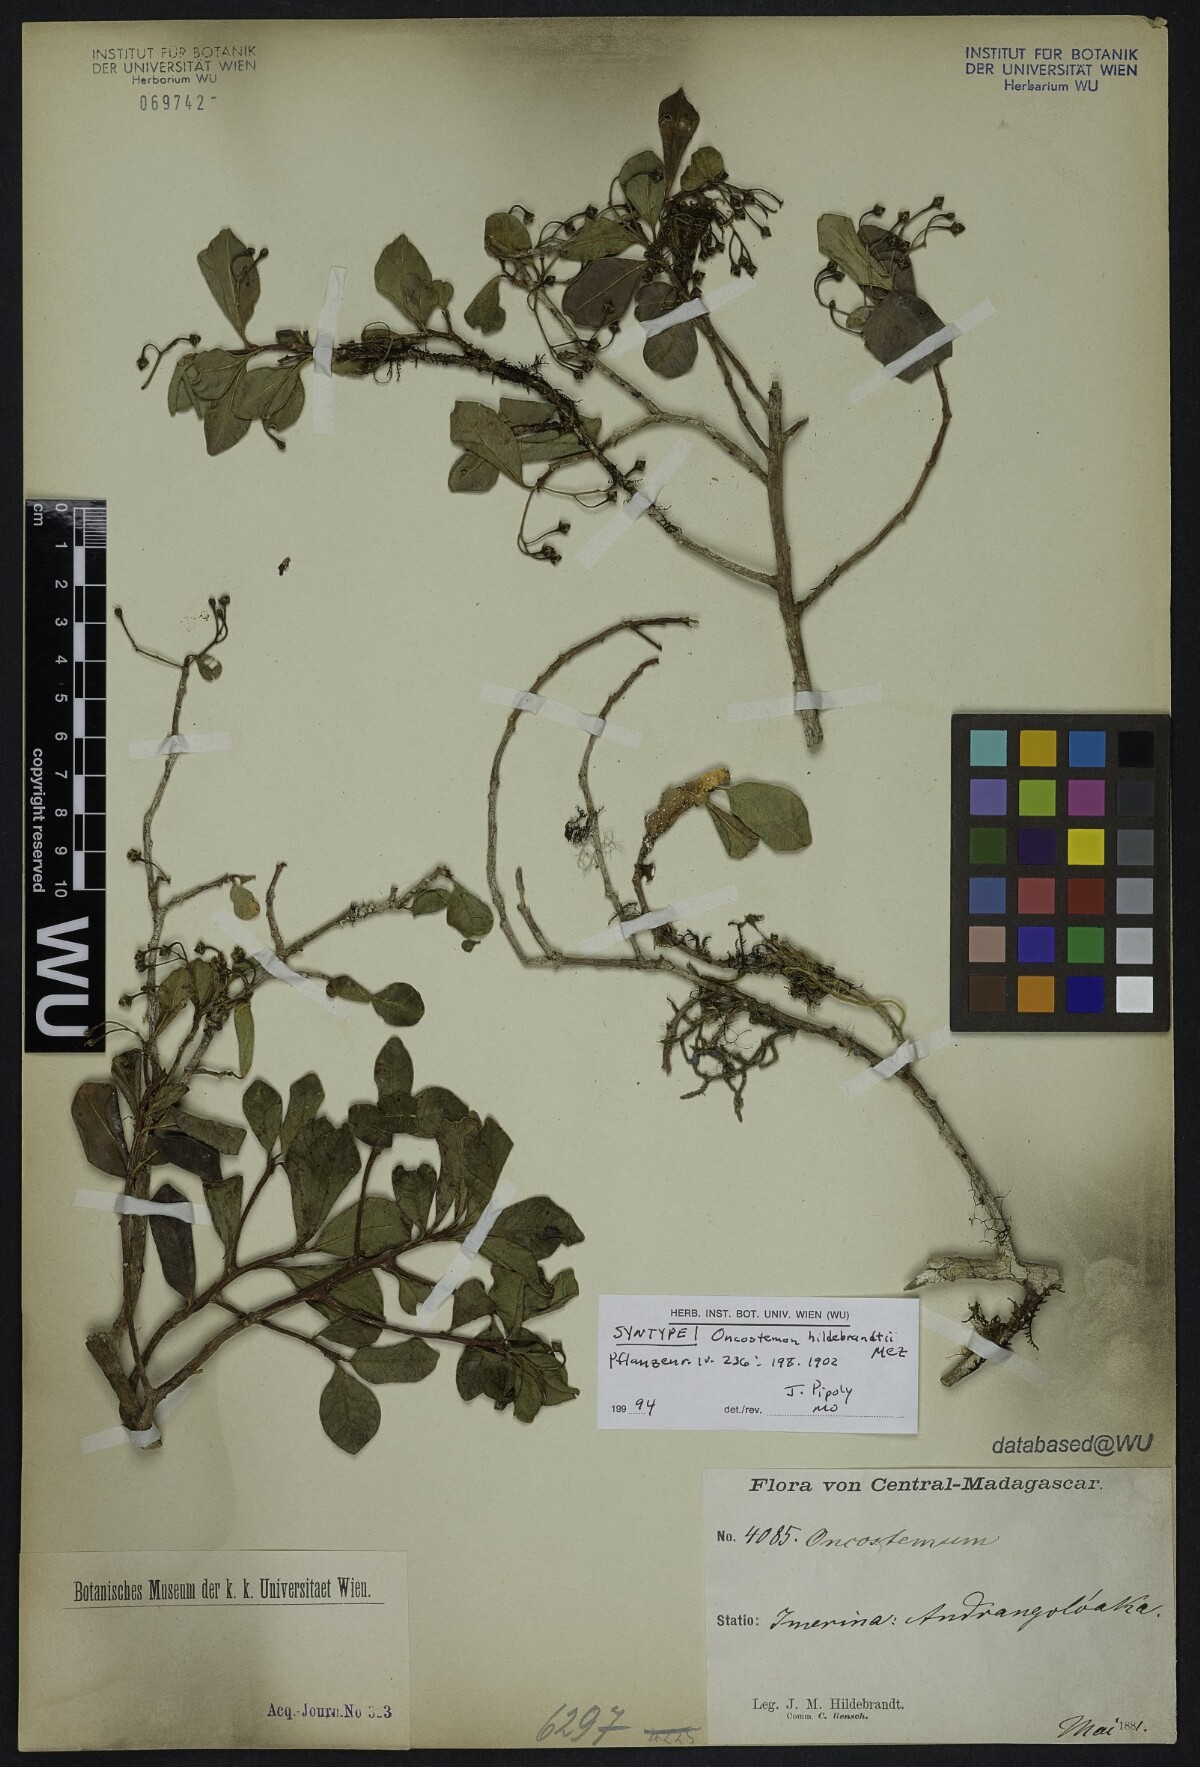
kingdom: Plantae
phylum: Tracheophyta
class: Magnoliopsida
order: Ericales
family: Primulaceae
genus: Oncostemum
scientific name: Oncostemum hildebrandtii
